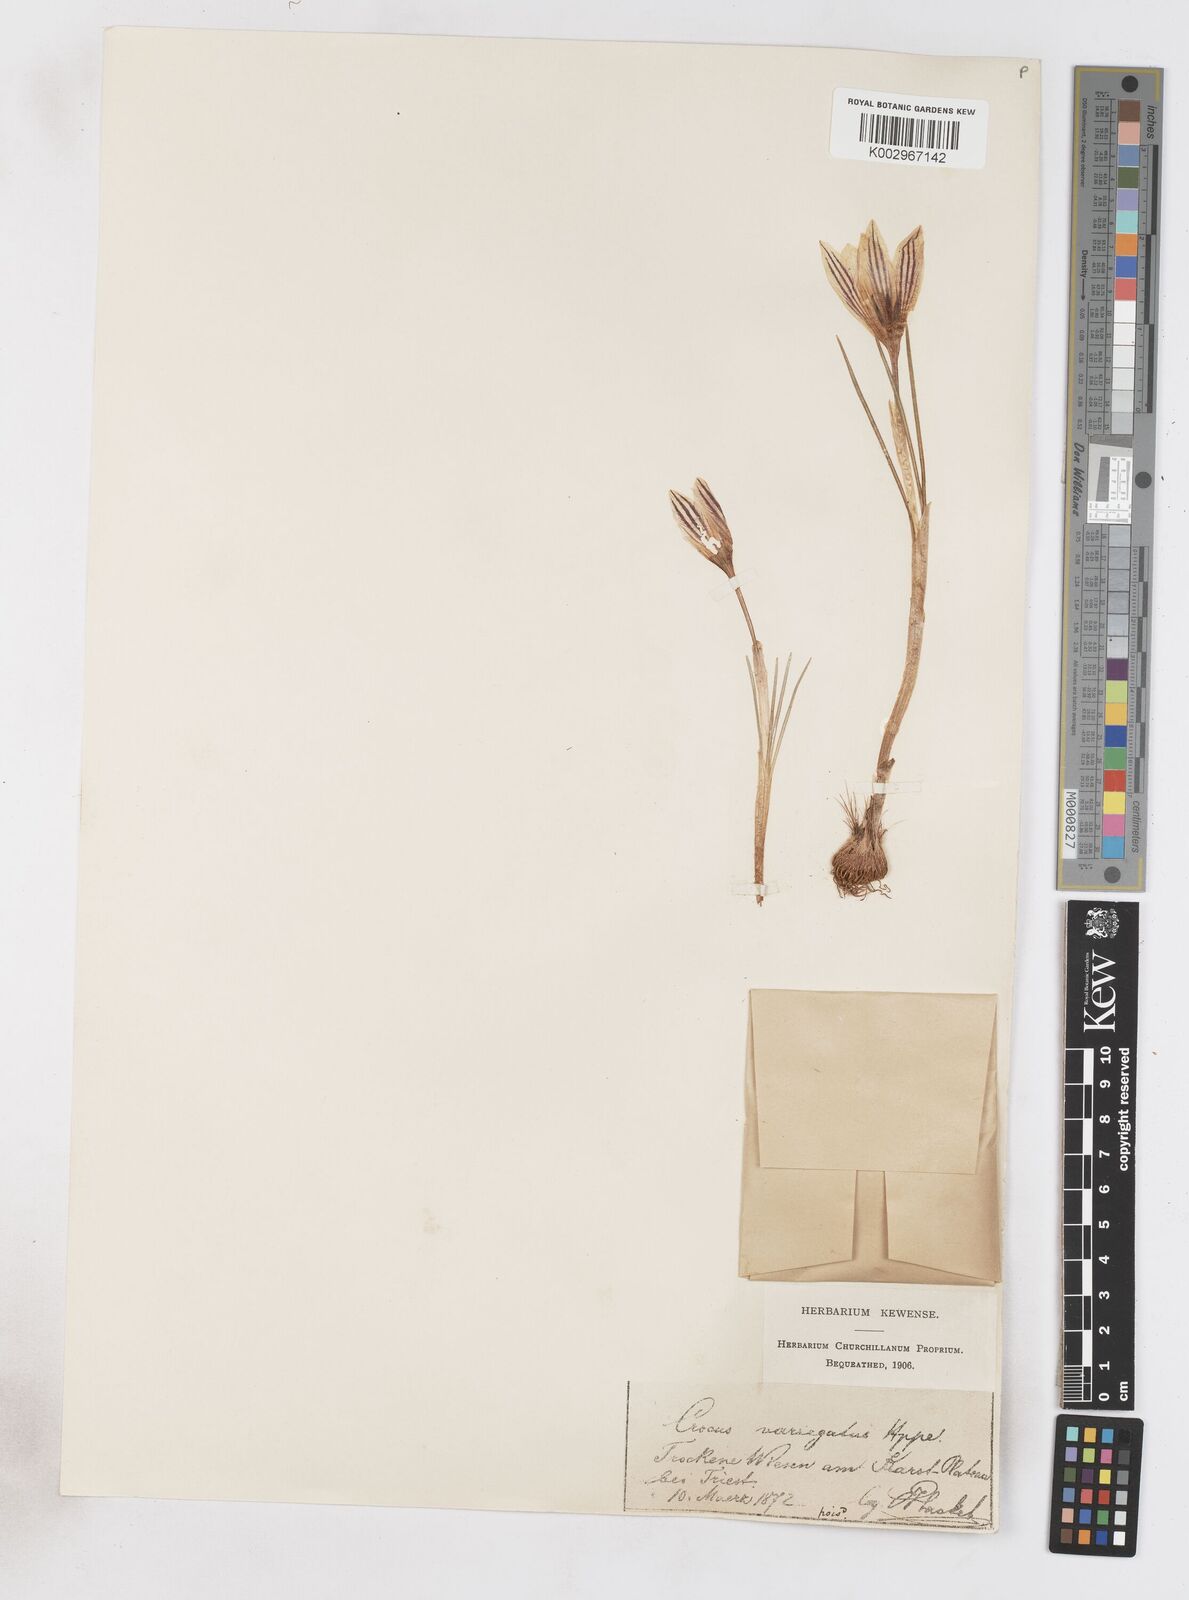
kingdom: Plantae
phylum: Tracheophyta
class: Liliopsida
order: Asparagales
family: Iridaceae
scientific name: Iridaceae
